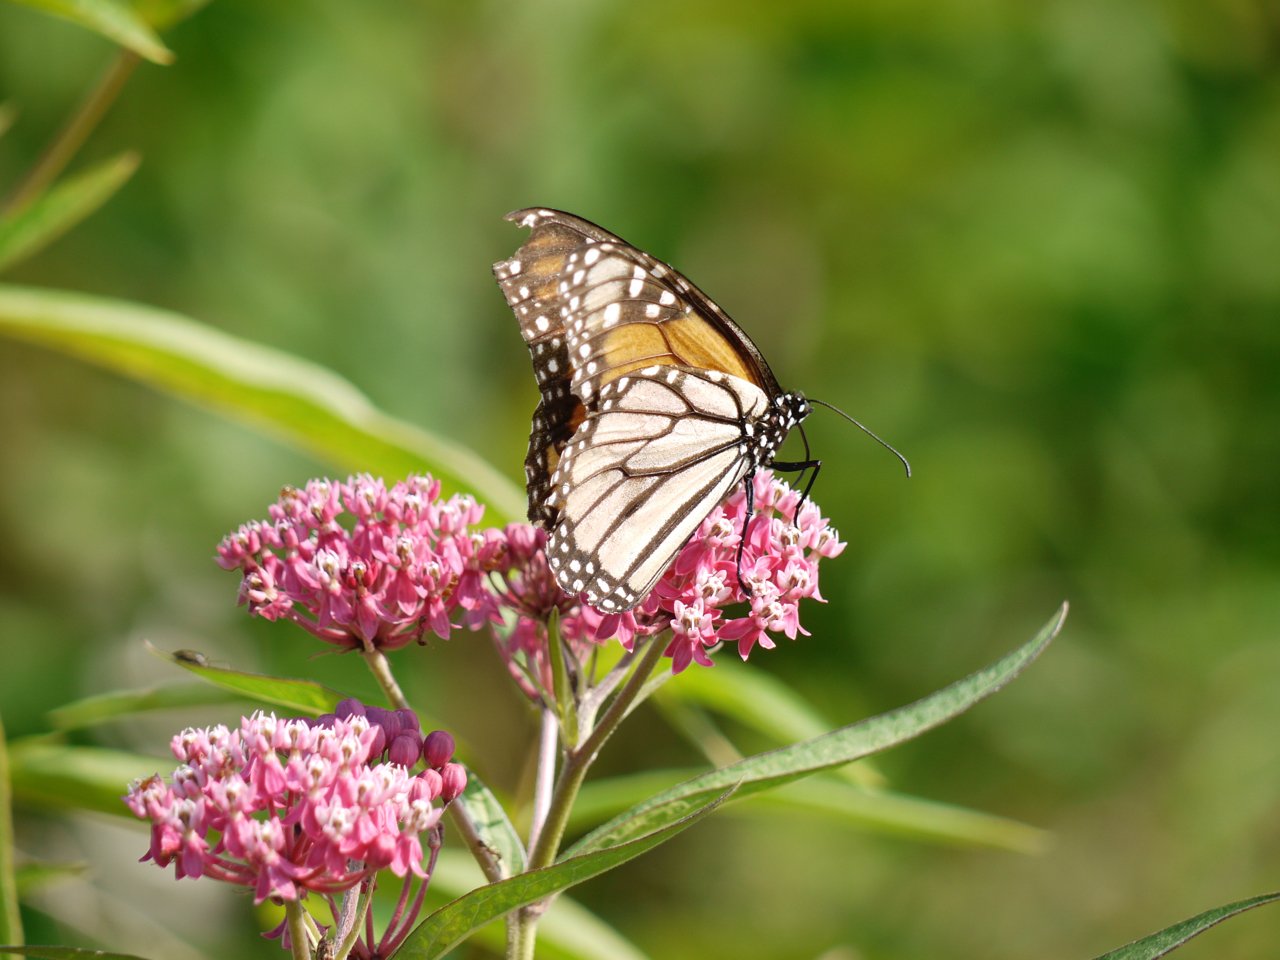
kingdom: Animalia
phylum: Arthropoda
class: Insecta
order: Lepidoptera
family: Nymphalidae
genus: Danaus
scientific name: Danaus plexippus
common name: Monarch
